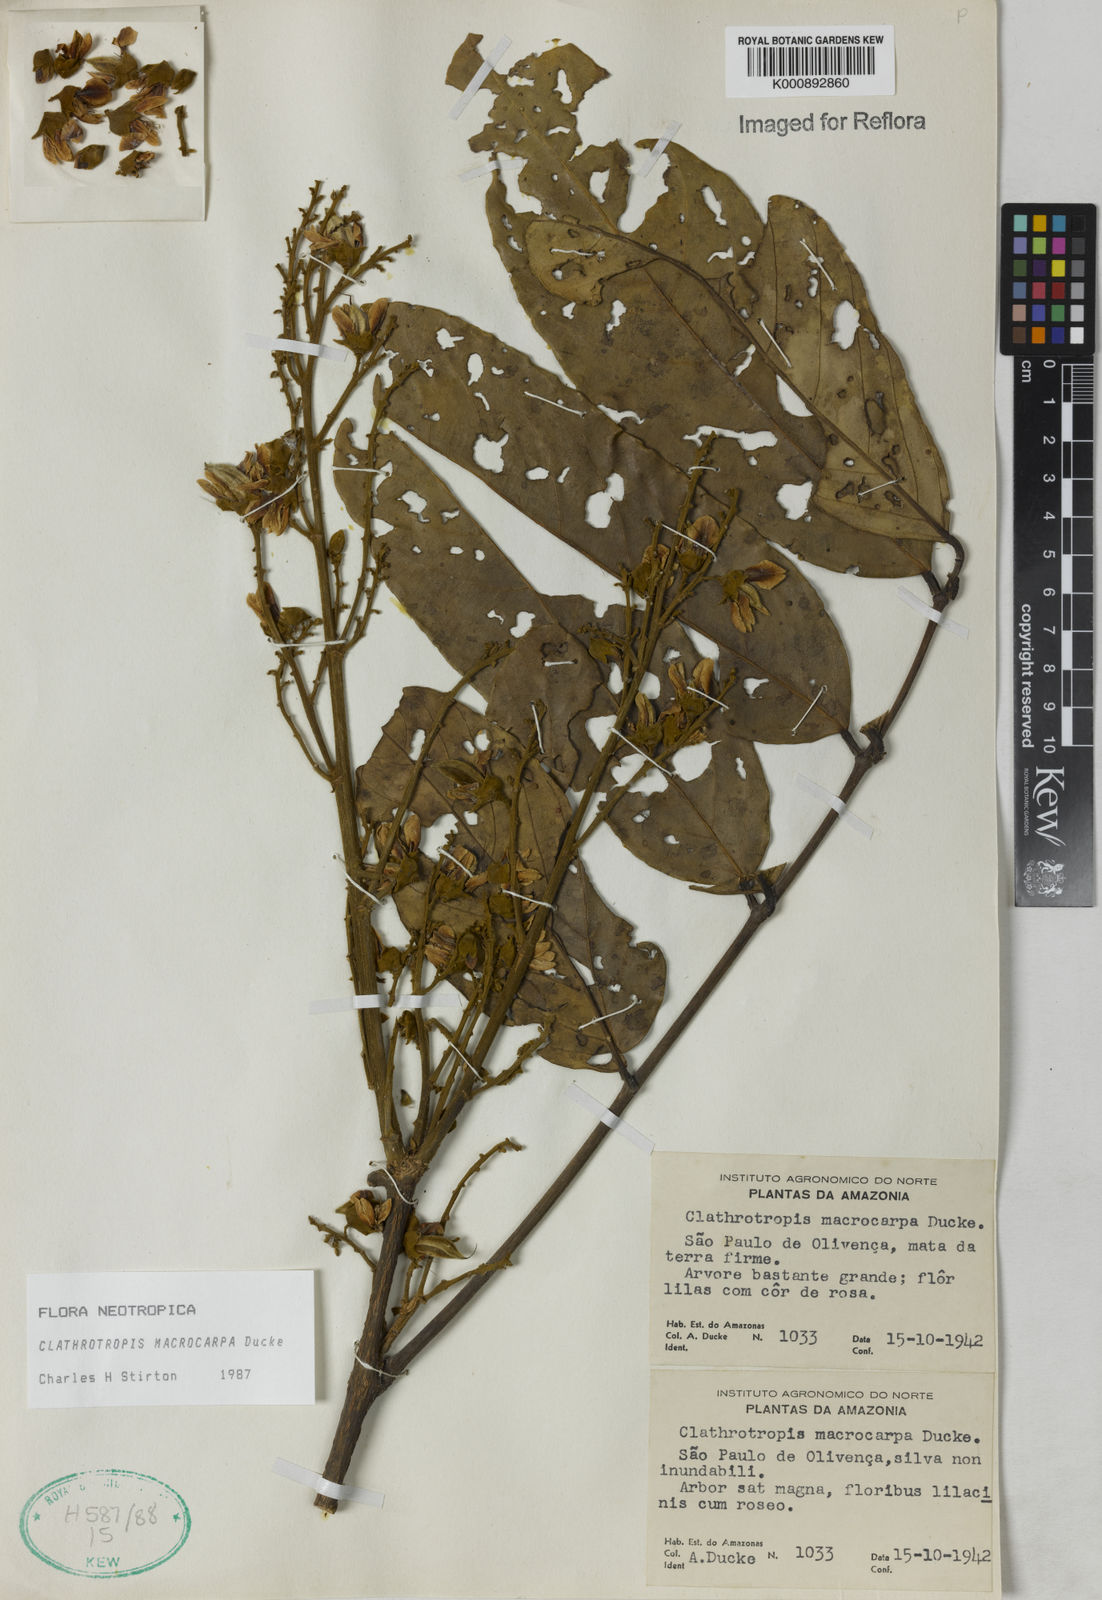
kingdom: Plantae
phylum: Tracheophyta
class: Magnoliopsida
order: Fabales
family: Fabaceae
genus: Clathrotropis
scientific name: Clathrotropis macrocarpa
